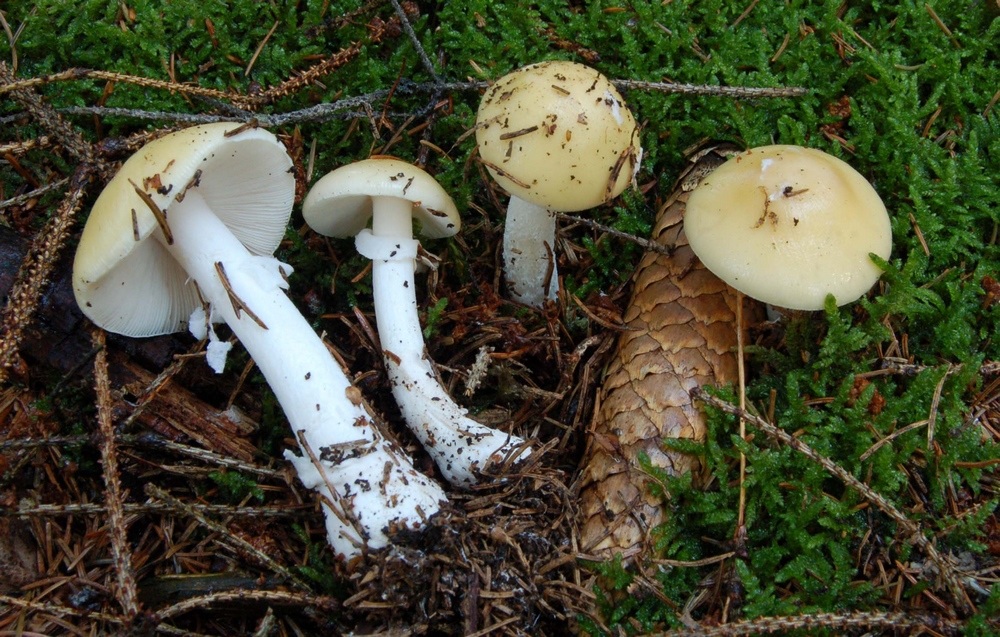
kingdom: Fungi
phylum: Basidiomycota
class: Agaricomycetes
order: Agaricales
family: Amanitaceae
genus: Amanita
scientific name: Amanita gemmata
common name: okkergul fluesvamp
